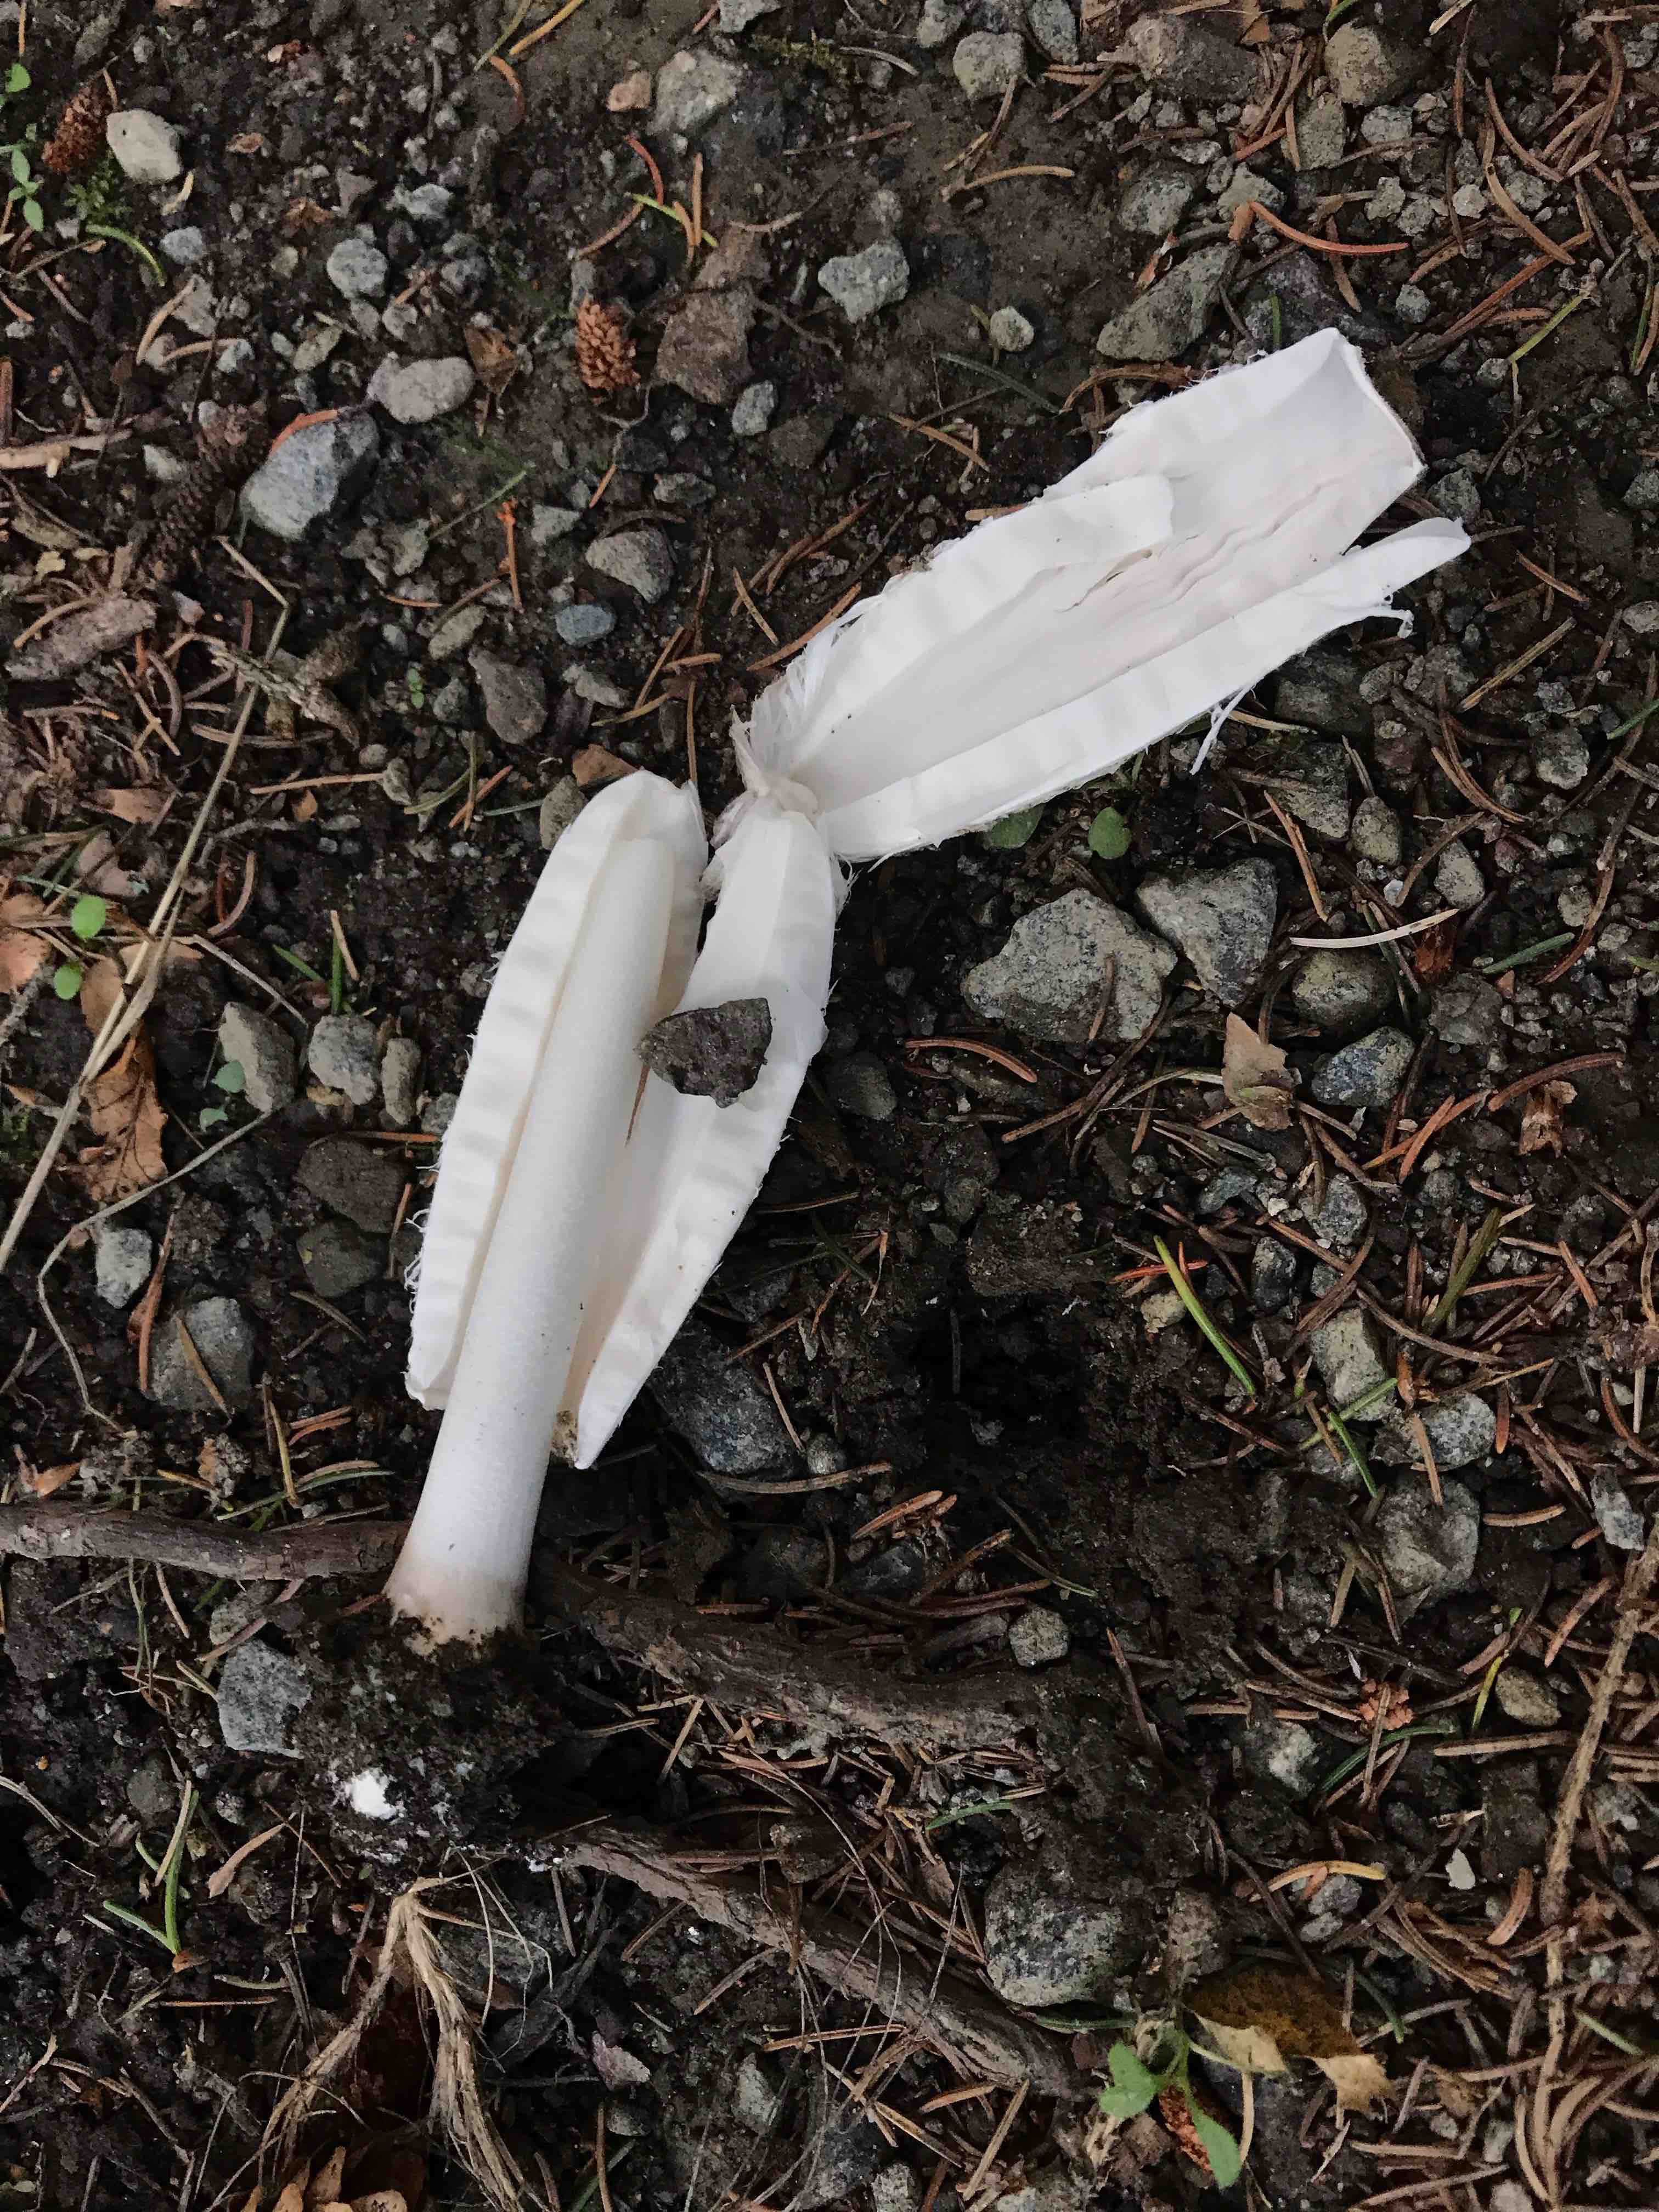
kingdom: Fungi
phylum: Basidiomycota
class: Agaricomycetes
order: Agaricales
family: Agaricaceae
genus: Coprinus
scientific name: Coprinus comatus
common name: stor parykhat
